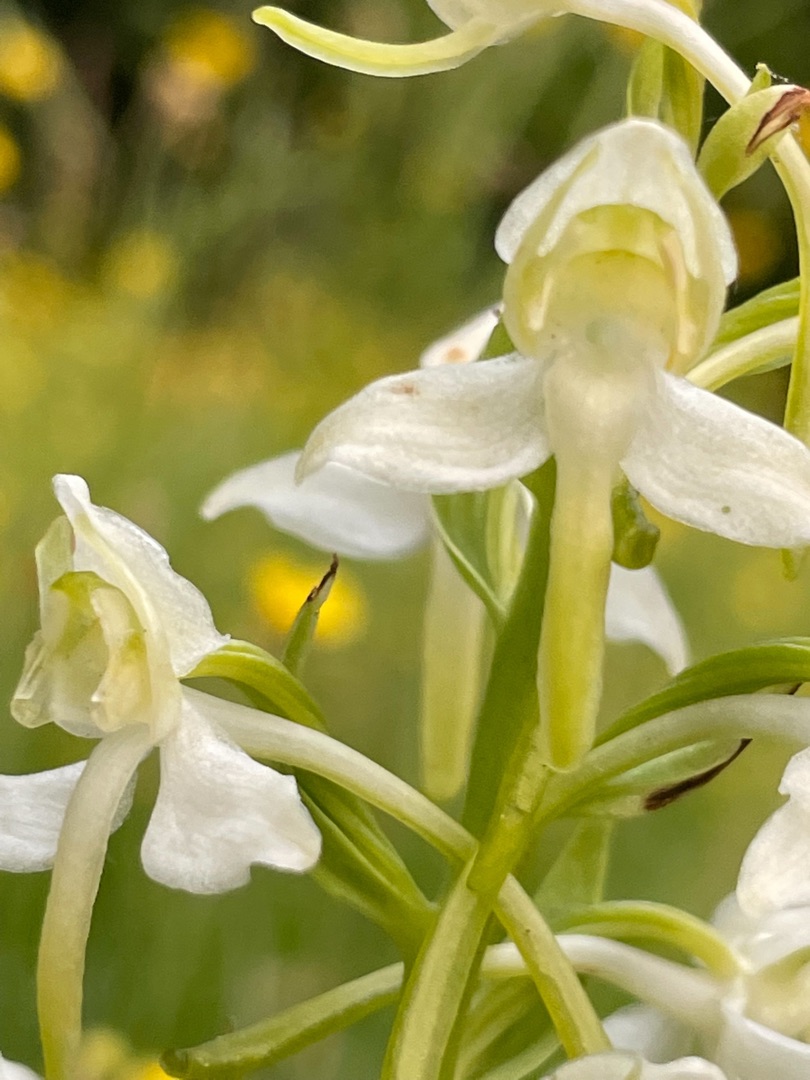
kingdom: Plantae
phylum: Tracheophyta
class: Liliopsida
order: Asparagales
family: Orchidaceae
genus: Platanthera
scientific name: Platanthera chlorantha
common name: Skov-gøgelilje
